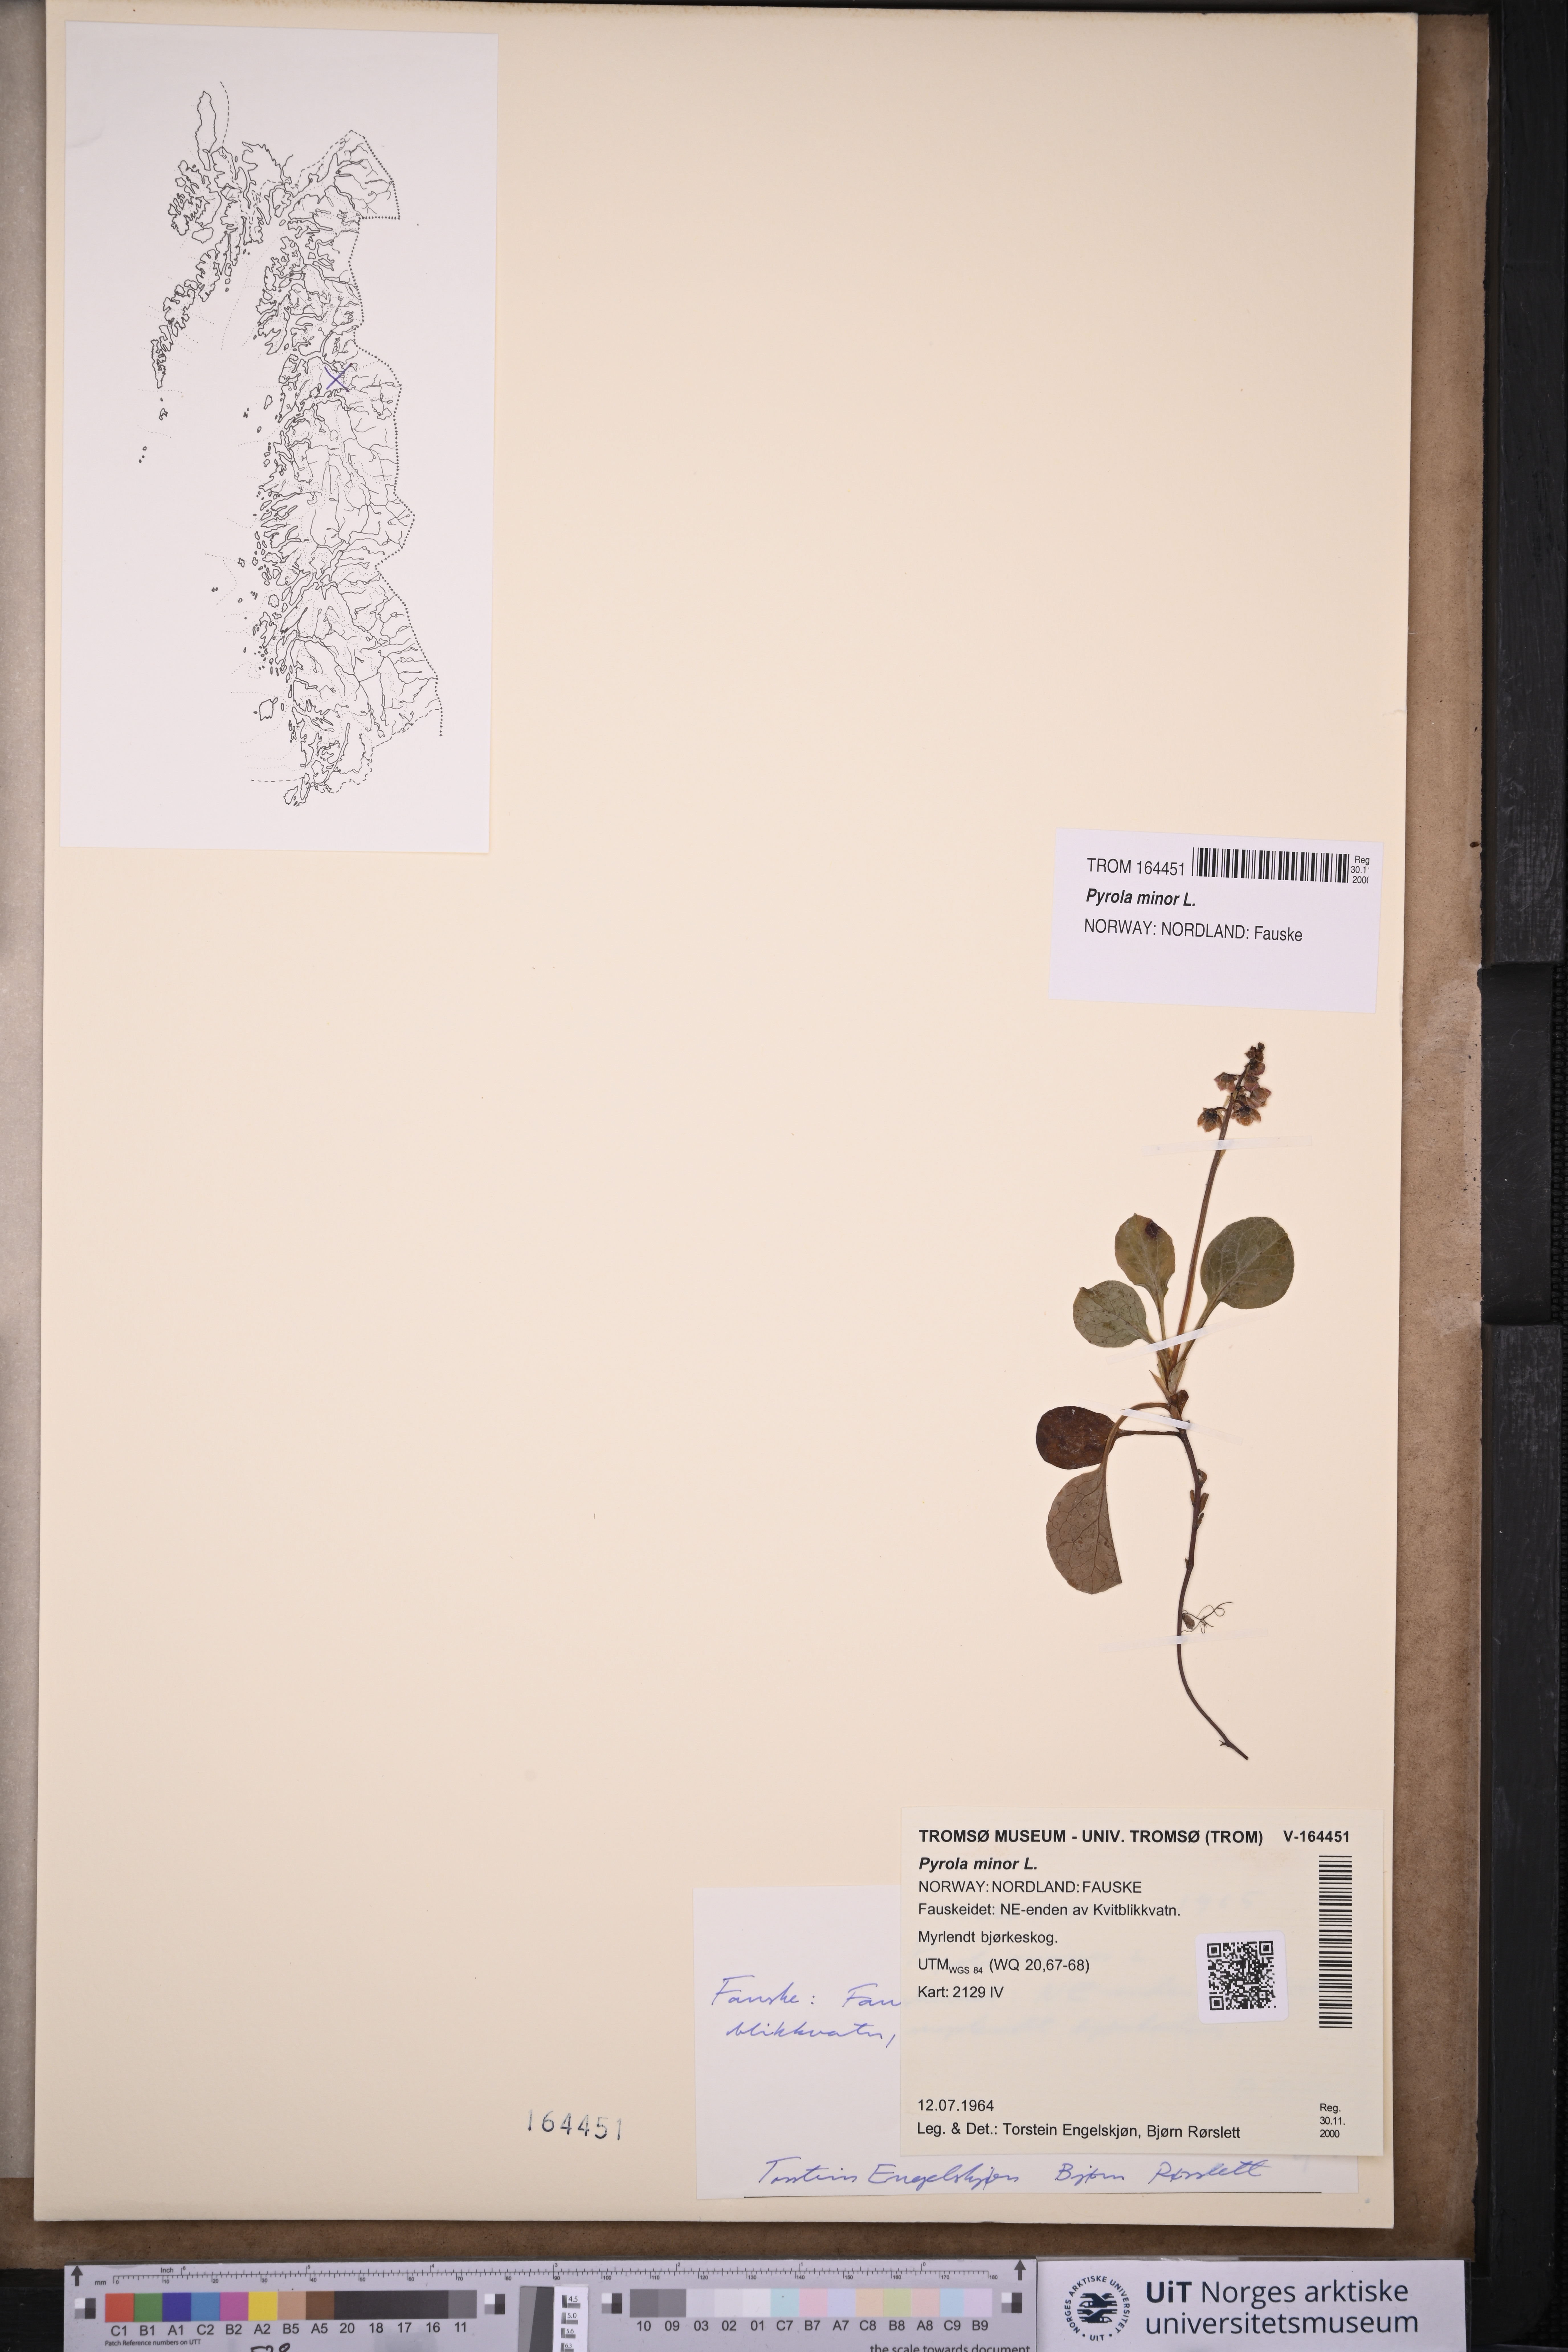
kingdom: Plantae
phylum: Tracheophyta
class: Magnoliopsida
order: Ericales
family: Ericaceae
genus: Pyrola
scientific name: Pyrola minor
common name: Common wintergreen
